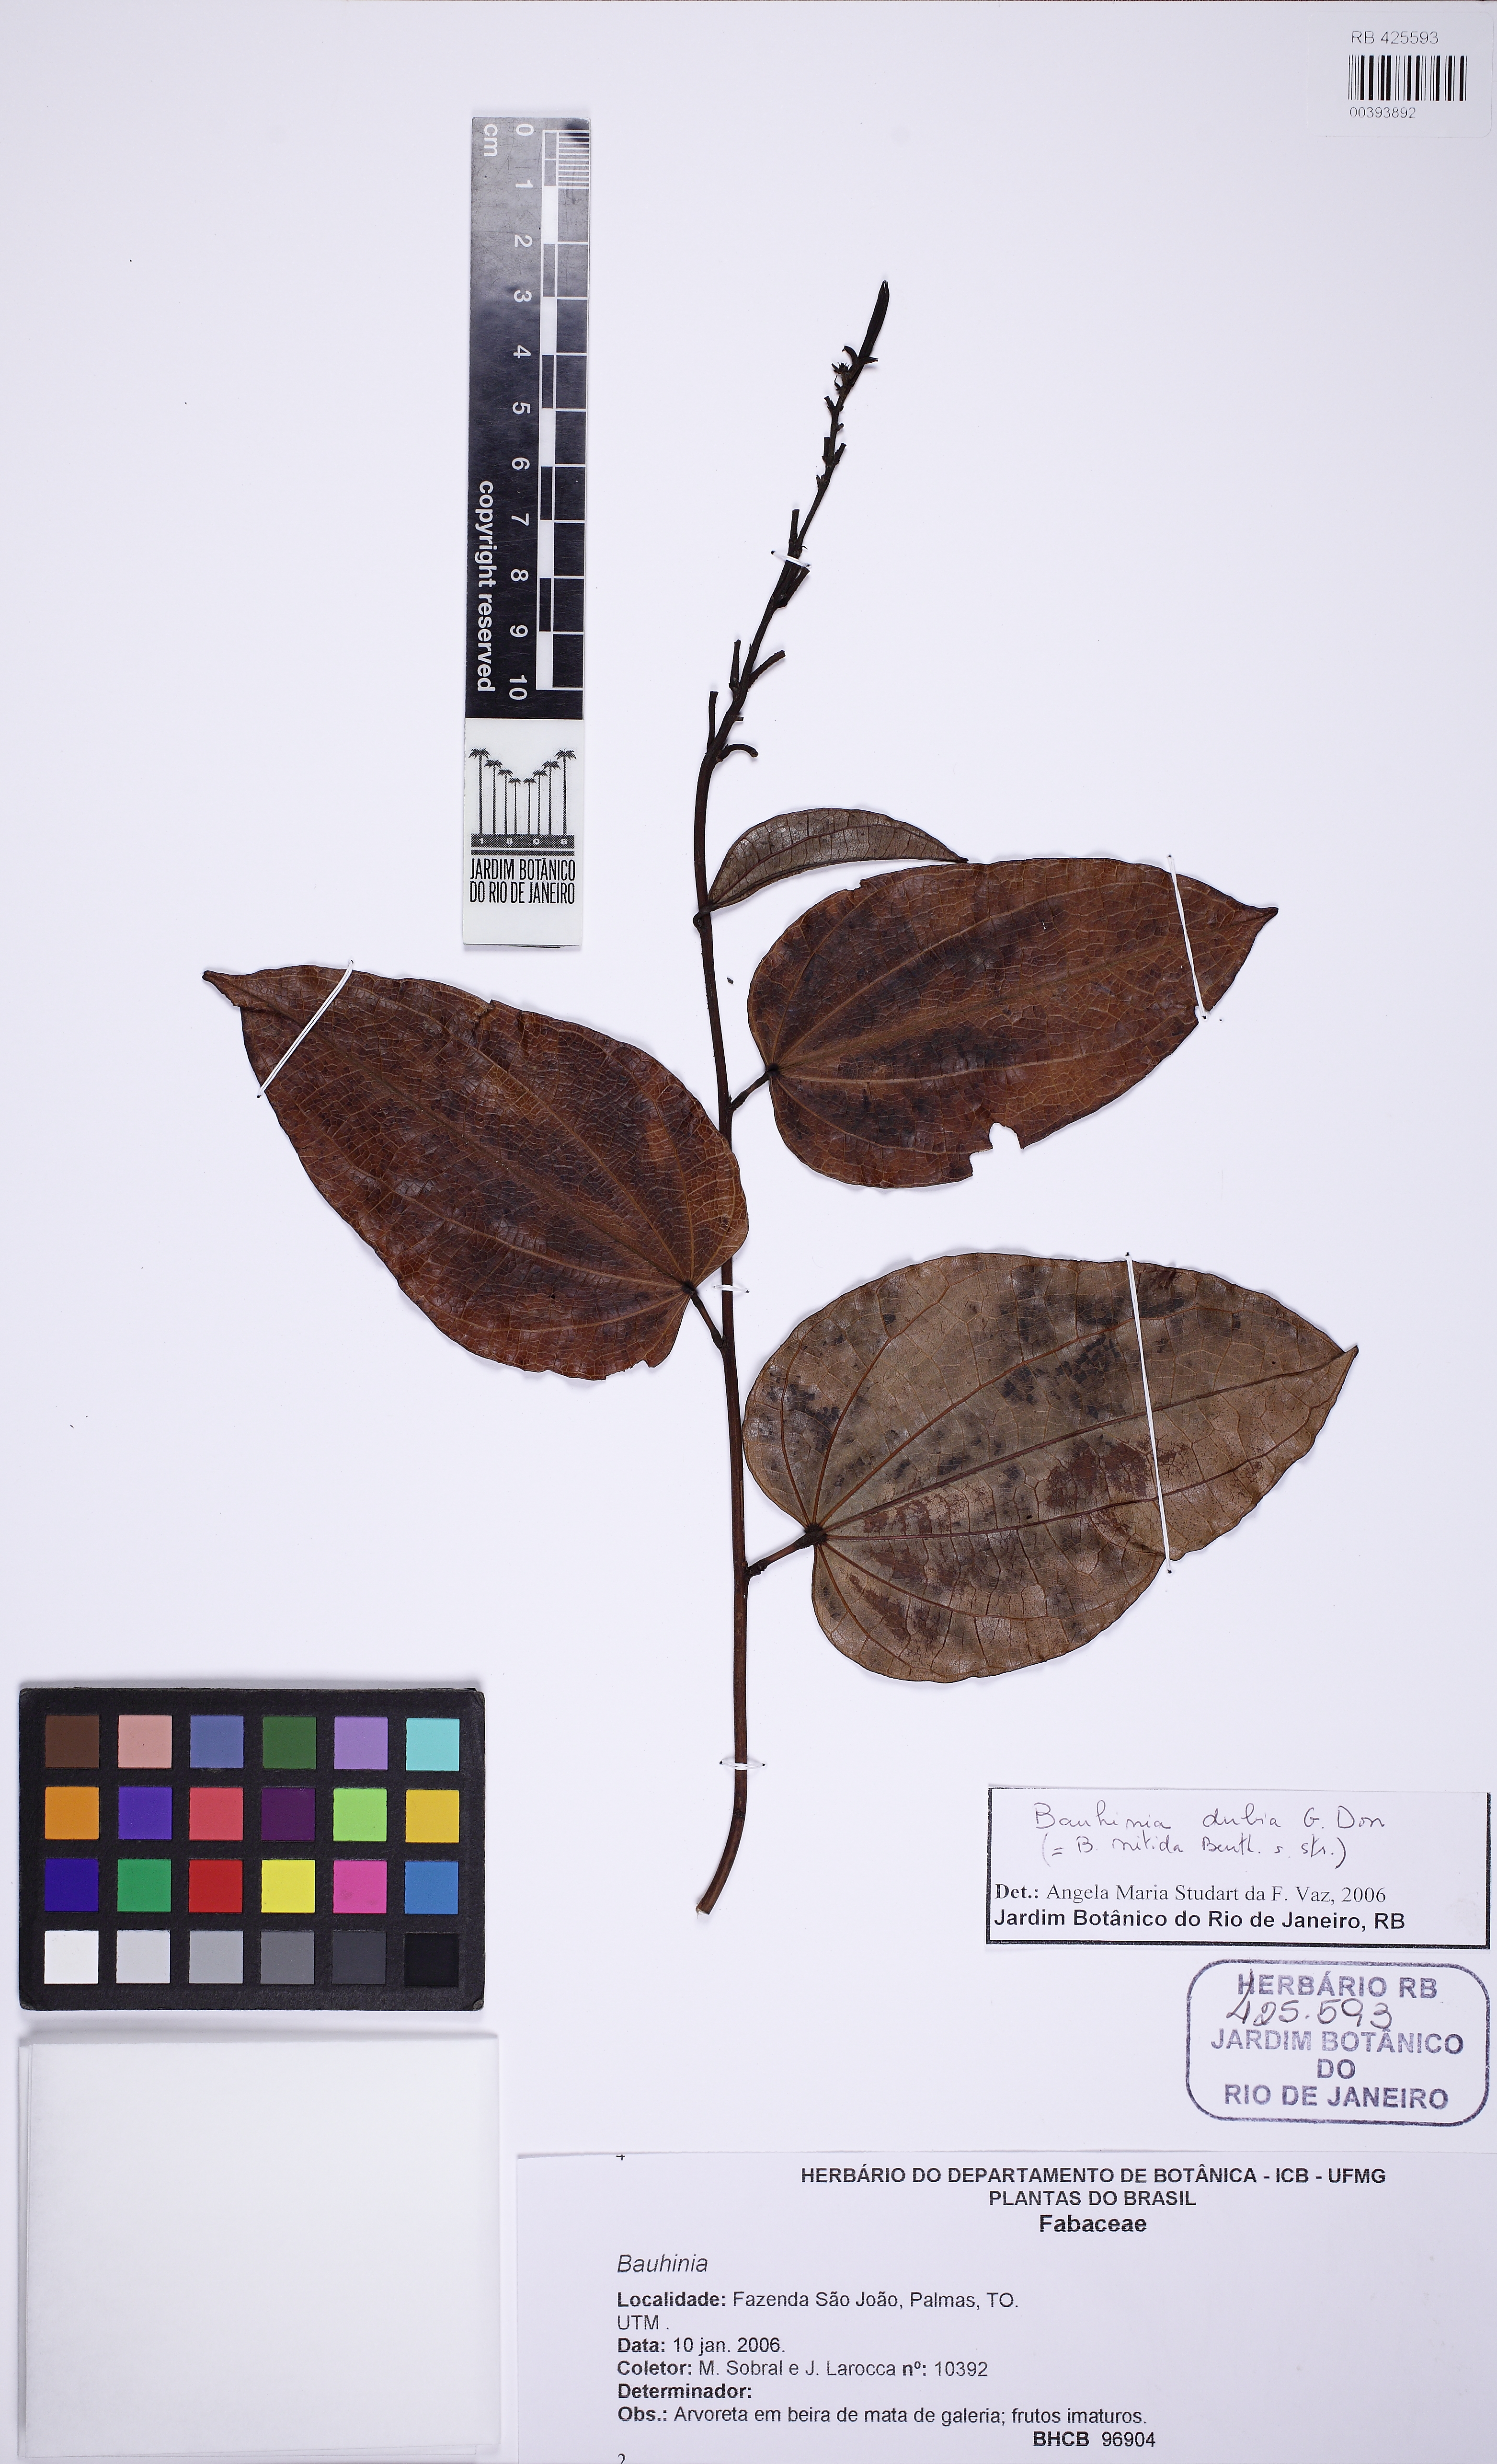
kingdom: Plantae
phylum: Tracheophyta
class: Magnoliopsida
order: Fabales
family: Fabaceae
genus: Bauhinia
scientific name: Bauhinia dubia
